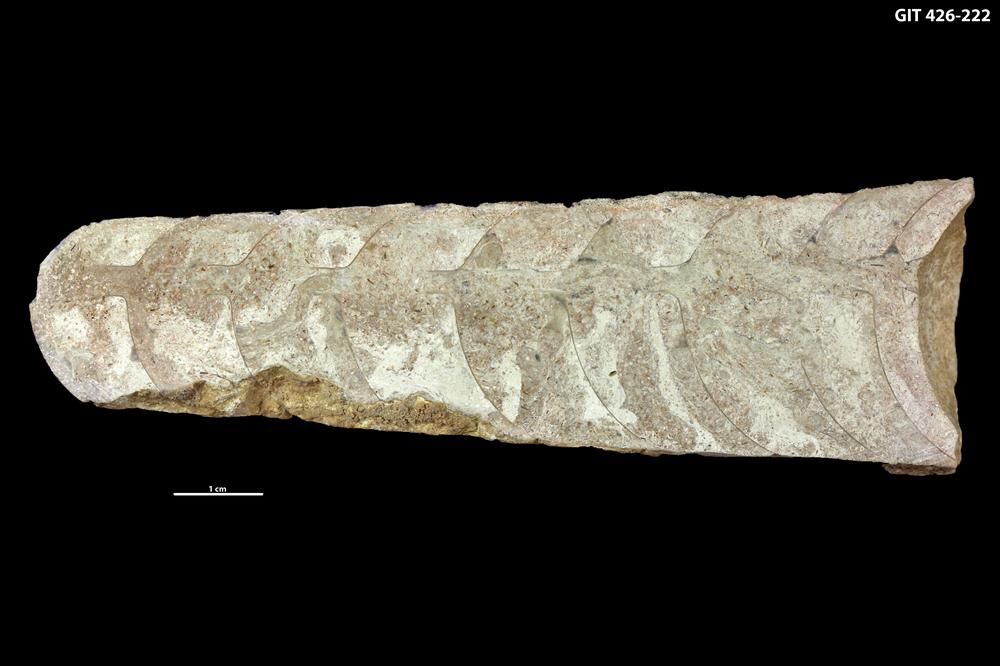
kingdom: Animalia
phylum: Mollusca
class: Cephalopoda
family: Lituitidae
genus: Lituites
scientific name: Lituites lituus
